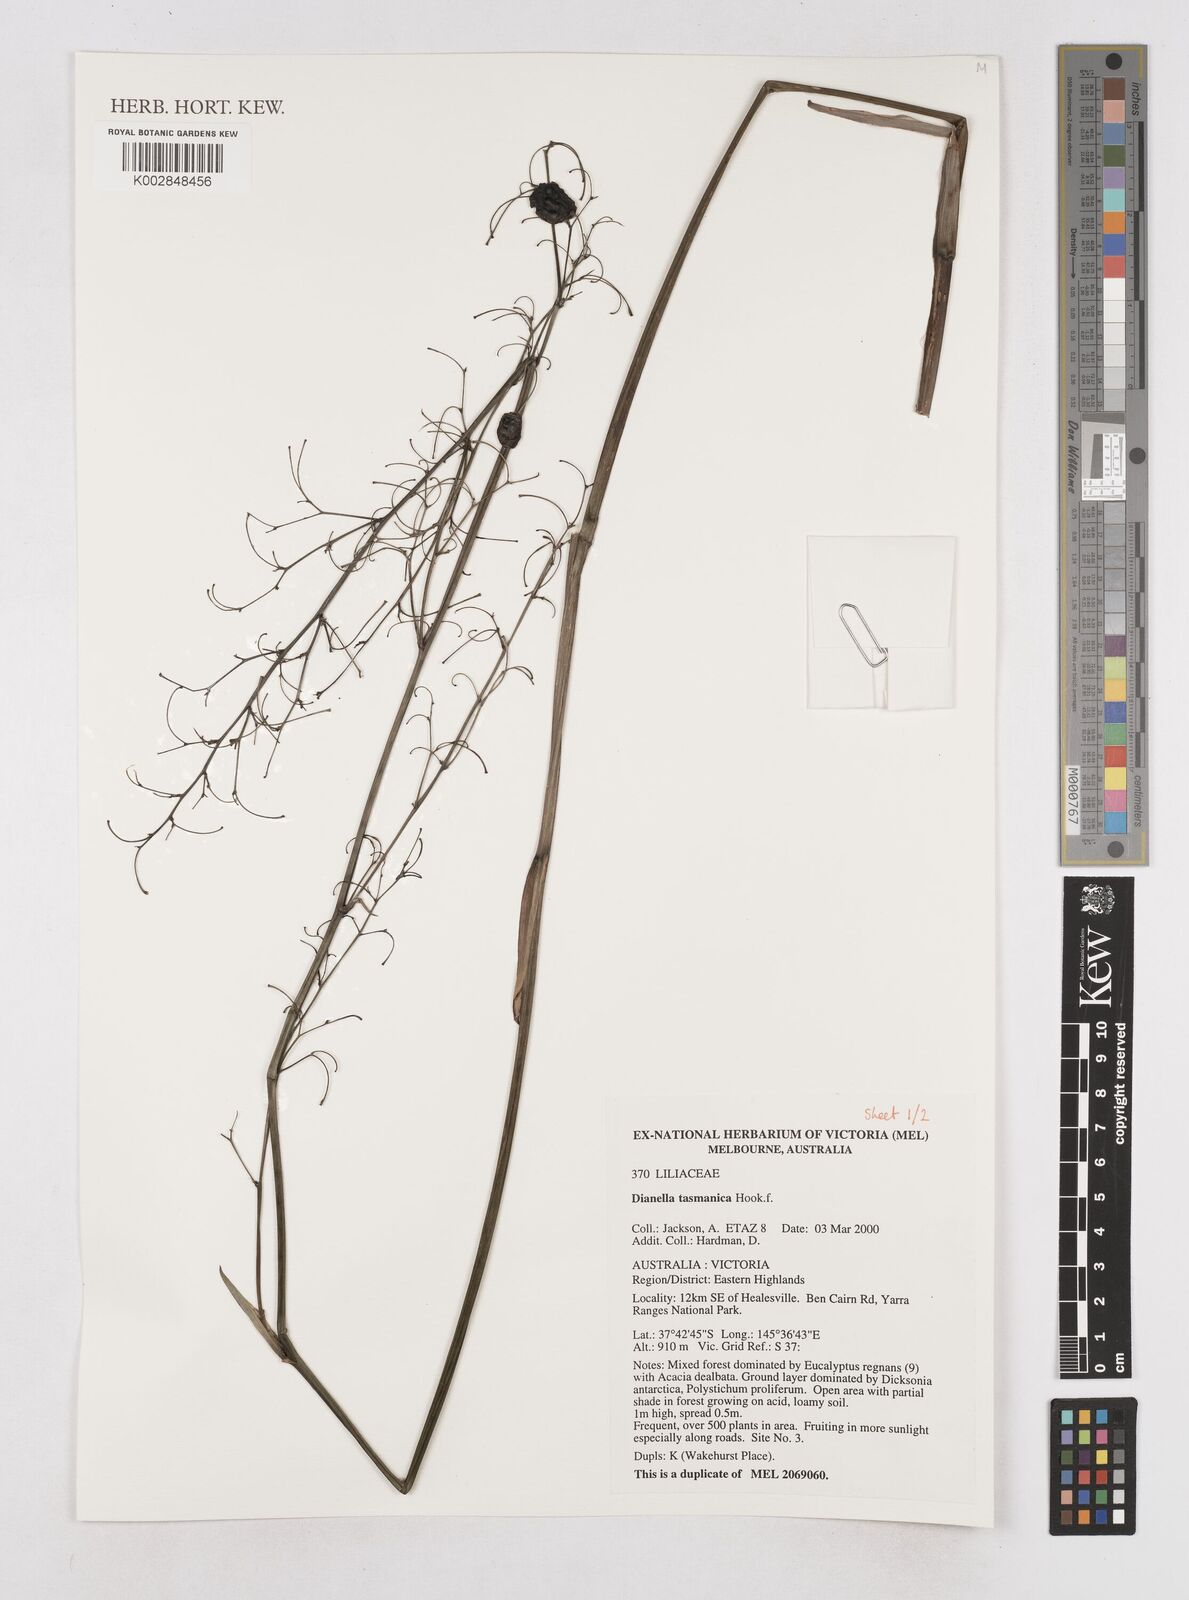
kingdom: Plantae
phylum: Tracheophyta
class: Liliopsida
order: Asparagales
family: Asphodelaceae
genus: Dianella
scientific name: Dianella tasmanica
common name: Tasman flax-lily
